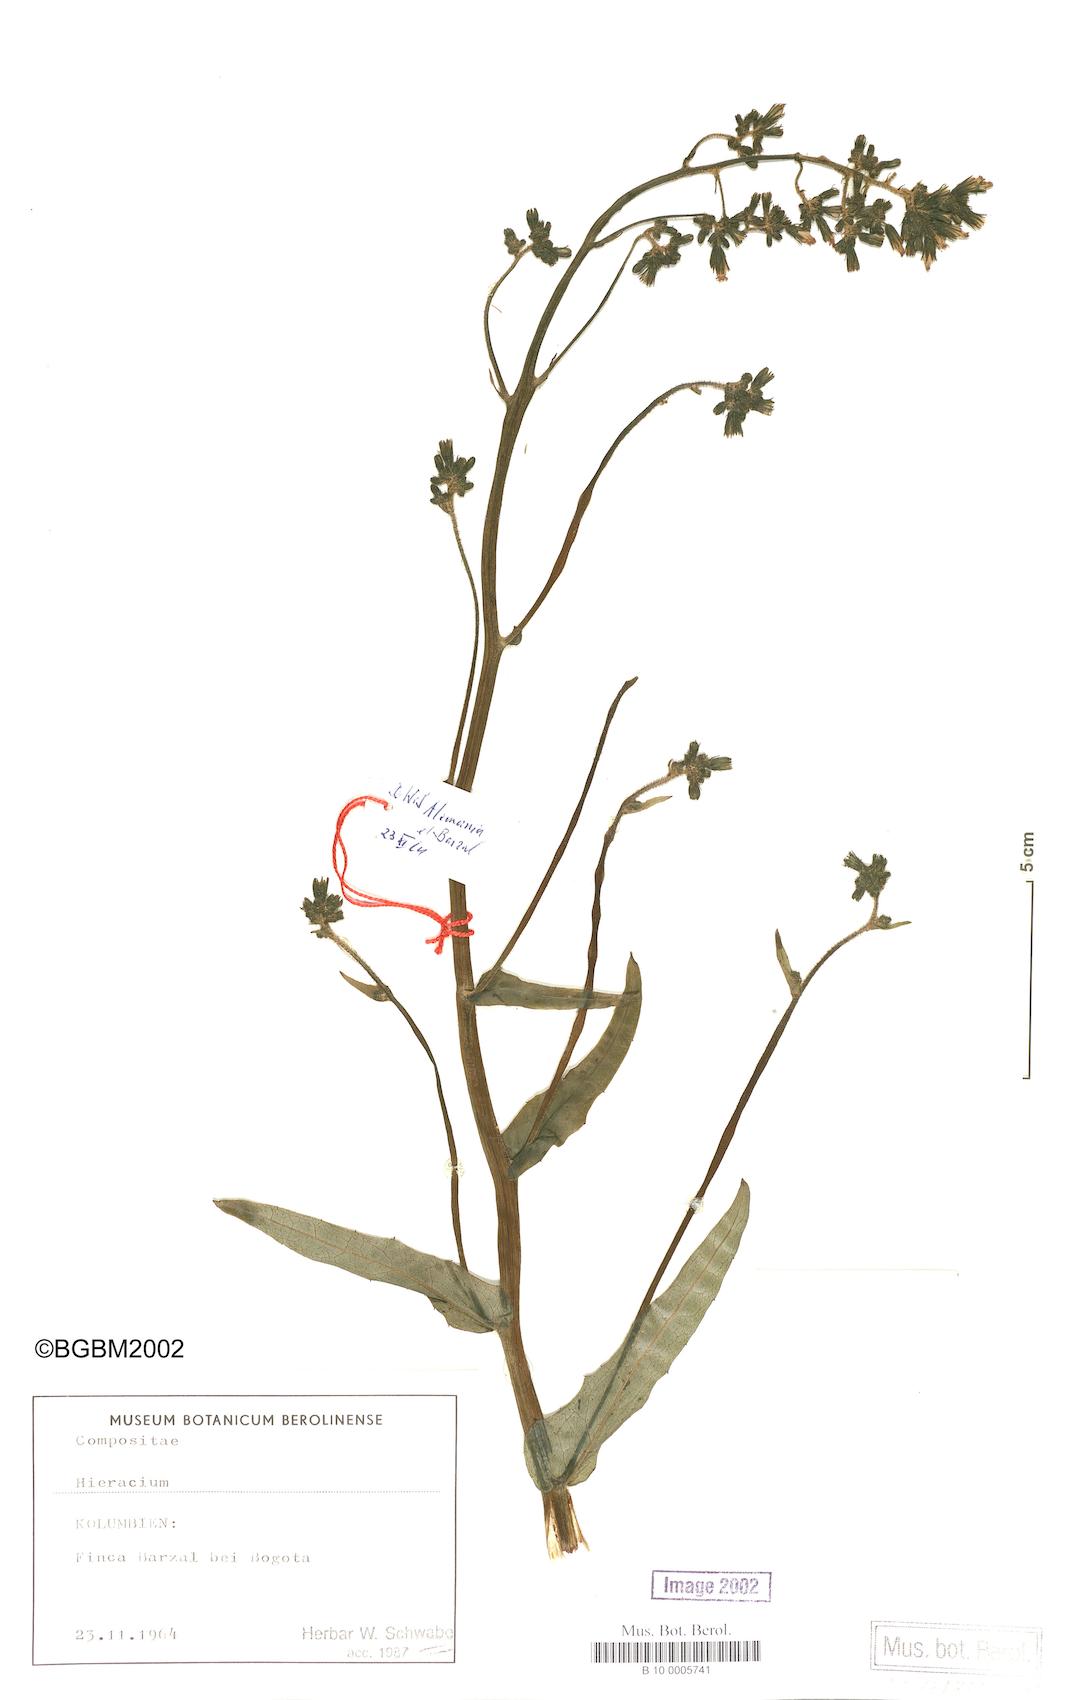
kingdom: Plantae
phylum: Tracheophyta
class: Magnoliopsida
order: Asterales
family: Asteraceae
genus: Hieracium
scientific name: Hieracium leptocephalum
